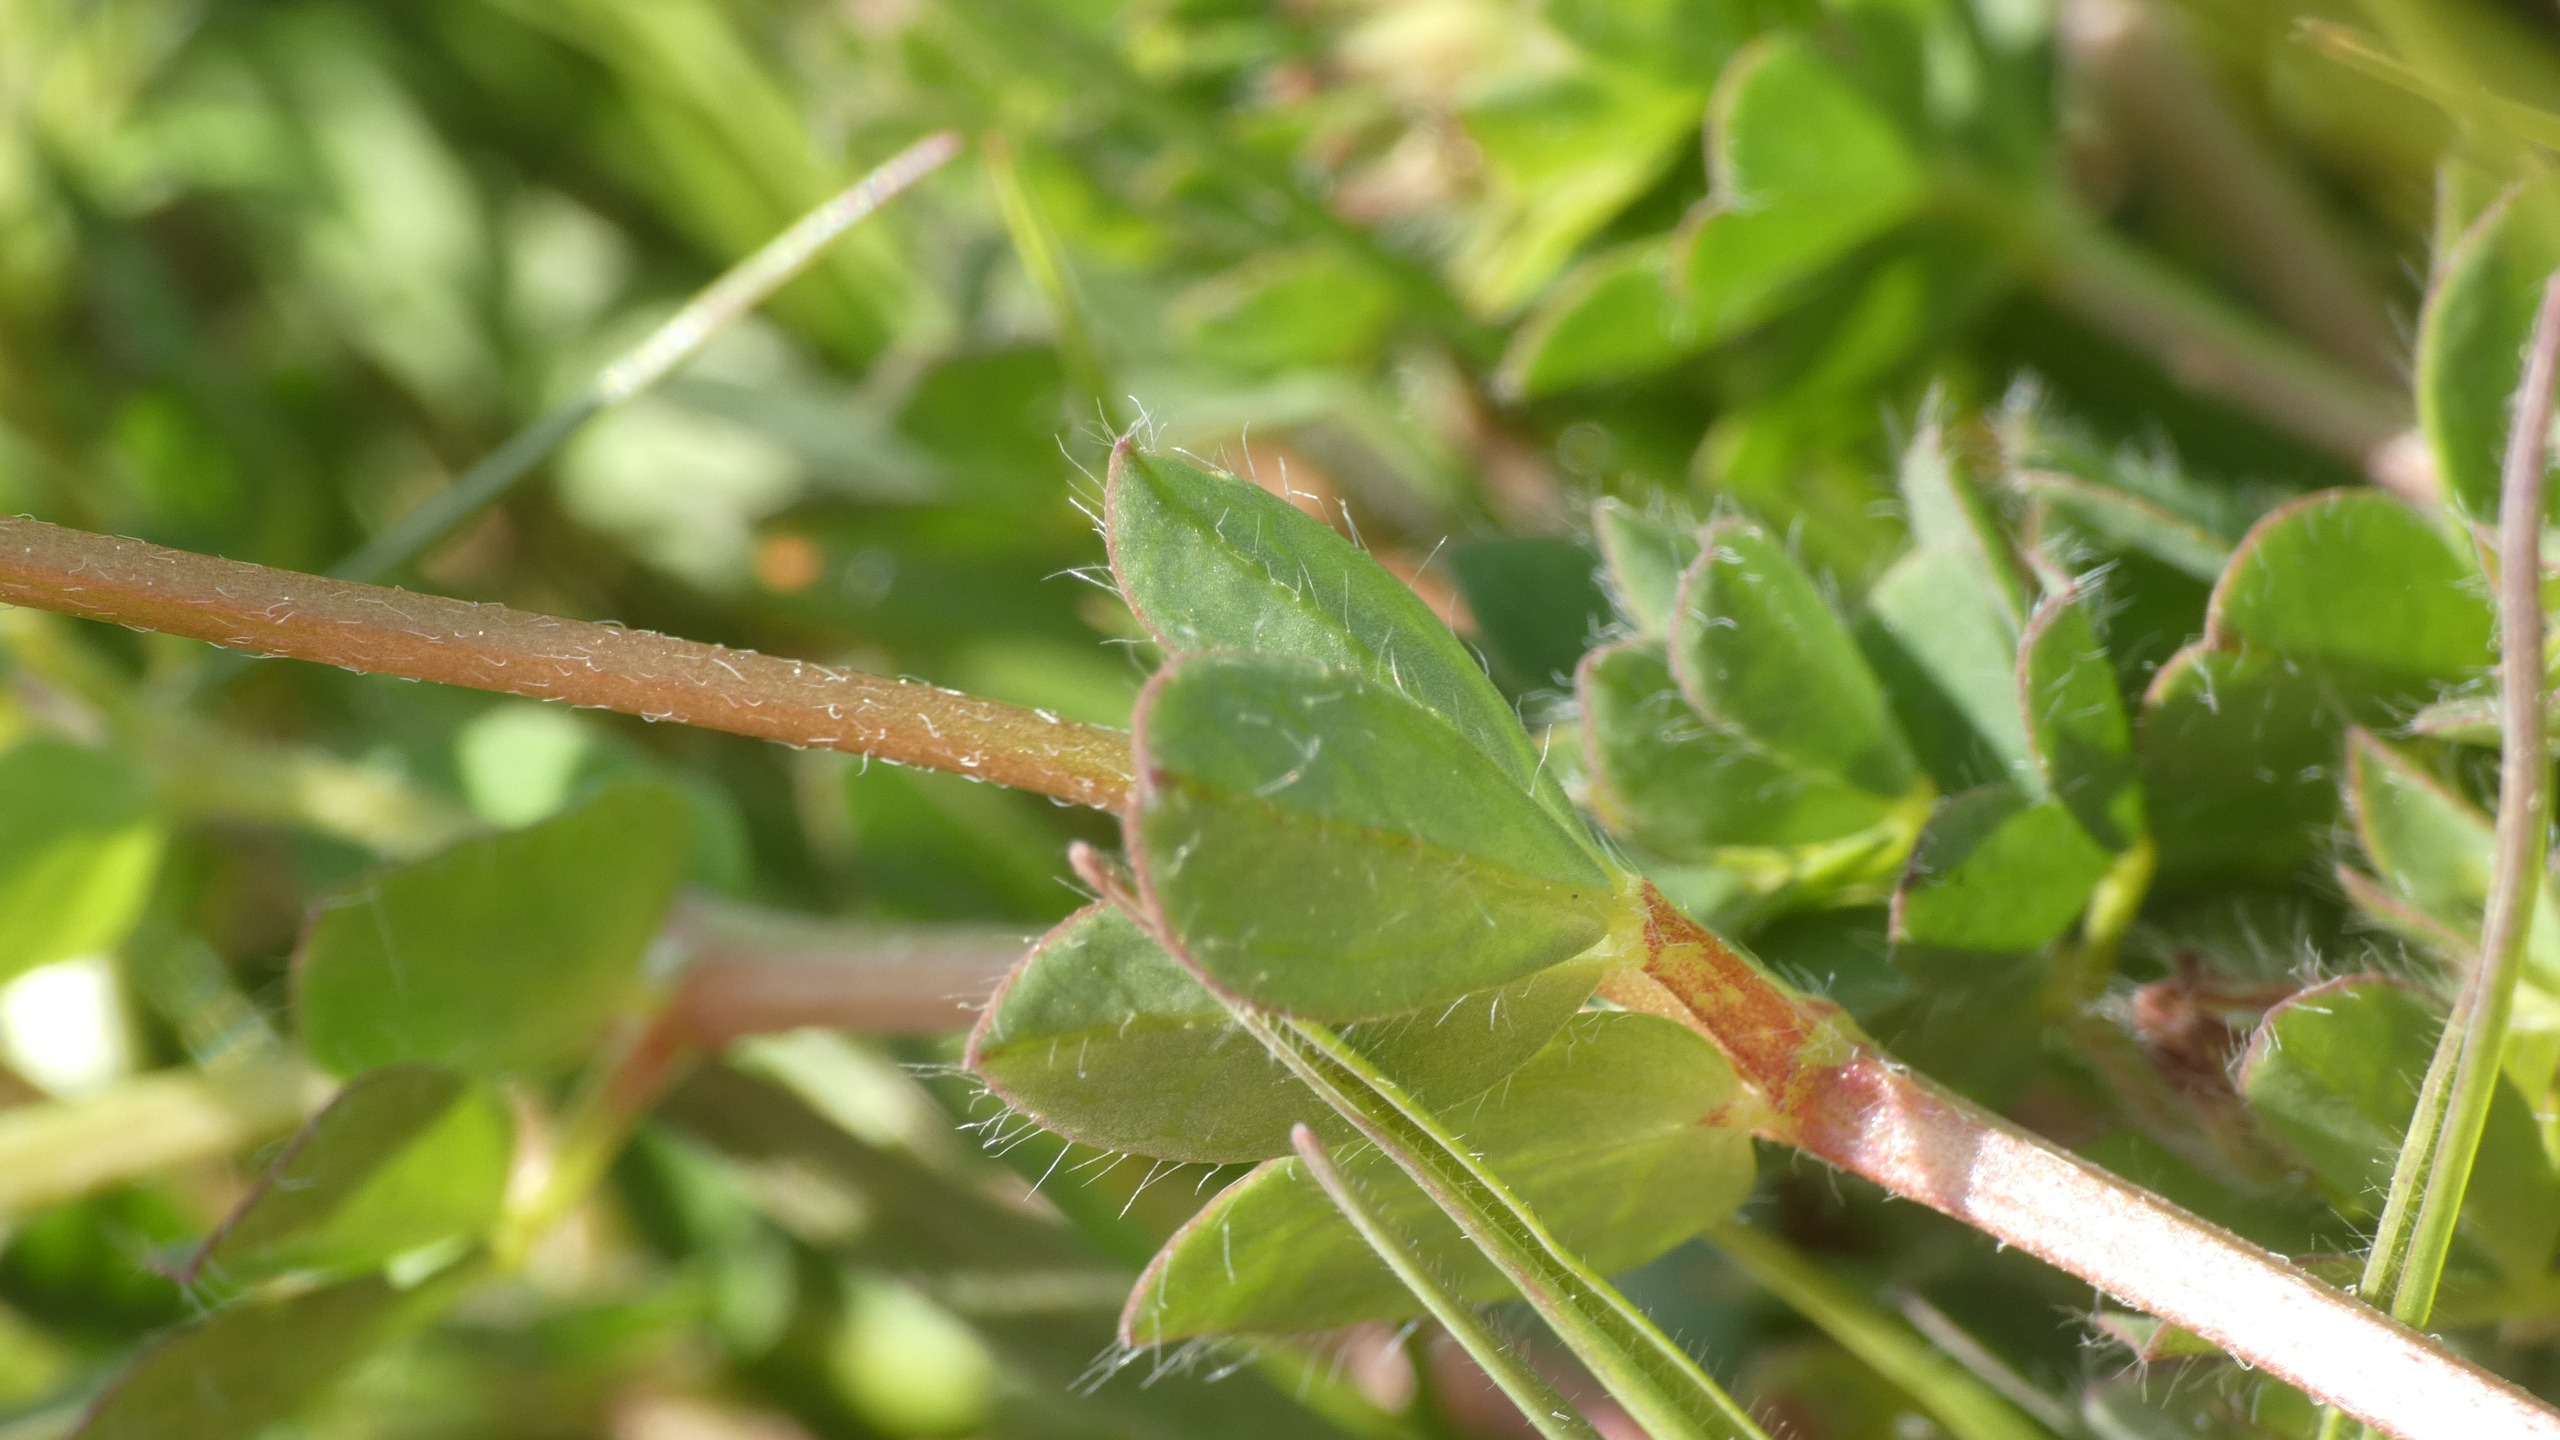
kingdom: Plantae
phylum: Tracheophyta
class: Magnoliopsida
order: Fabales
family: Fabaceae
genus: Lotus
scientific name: Lotus corniculatus
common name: Almindelig kællingetand
